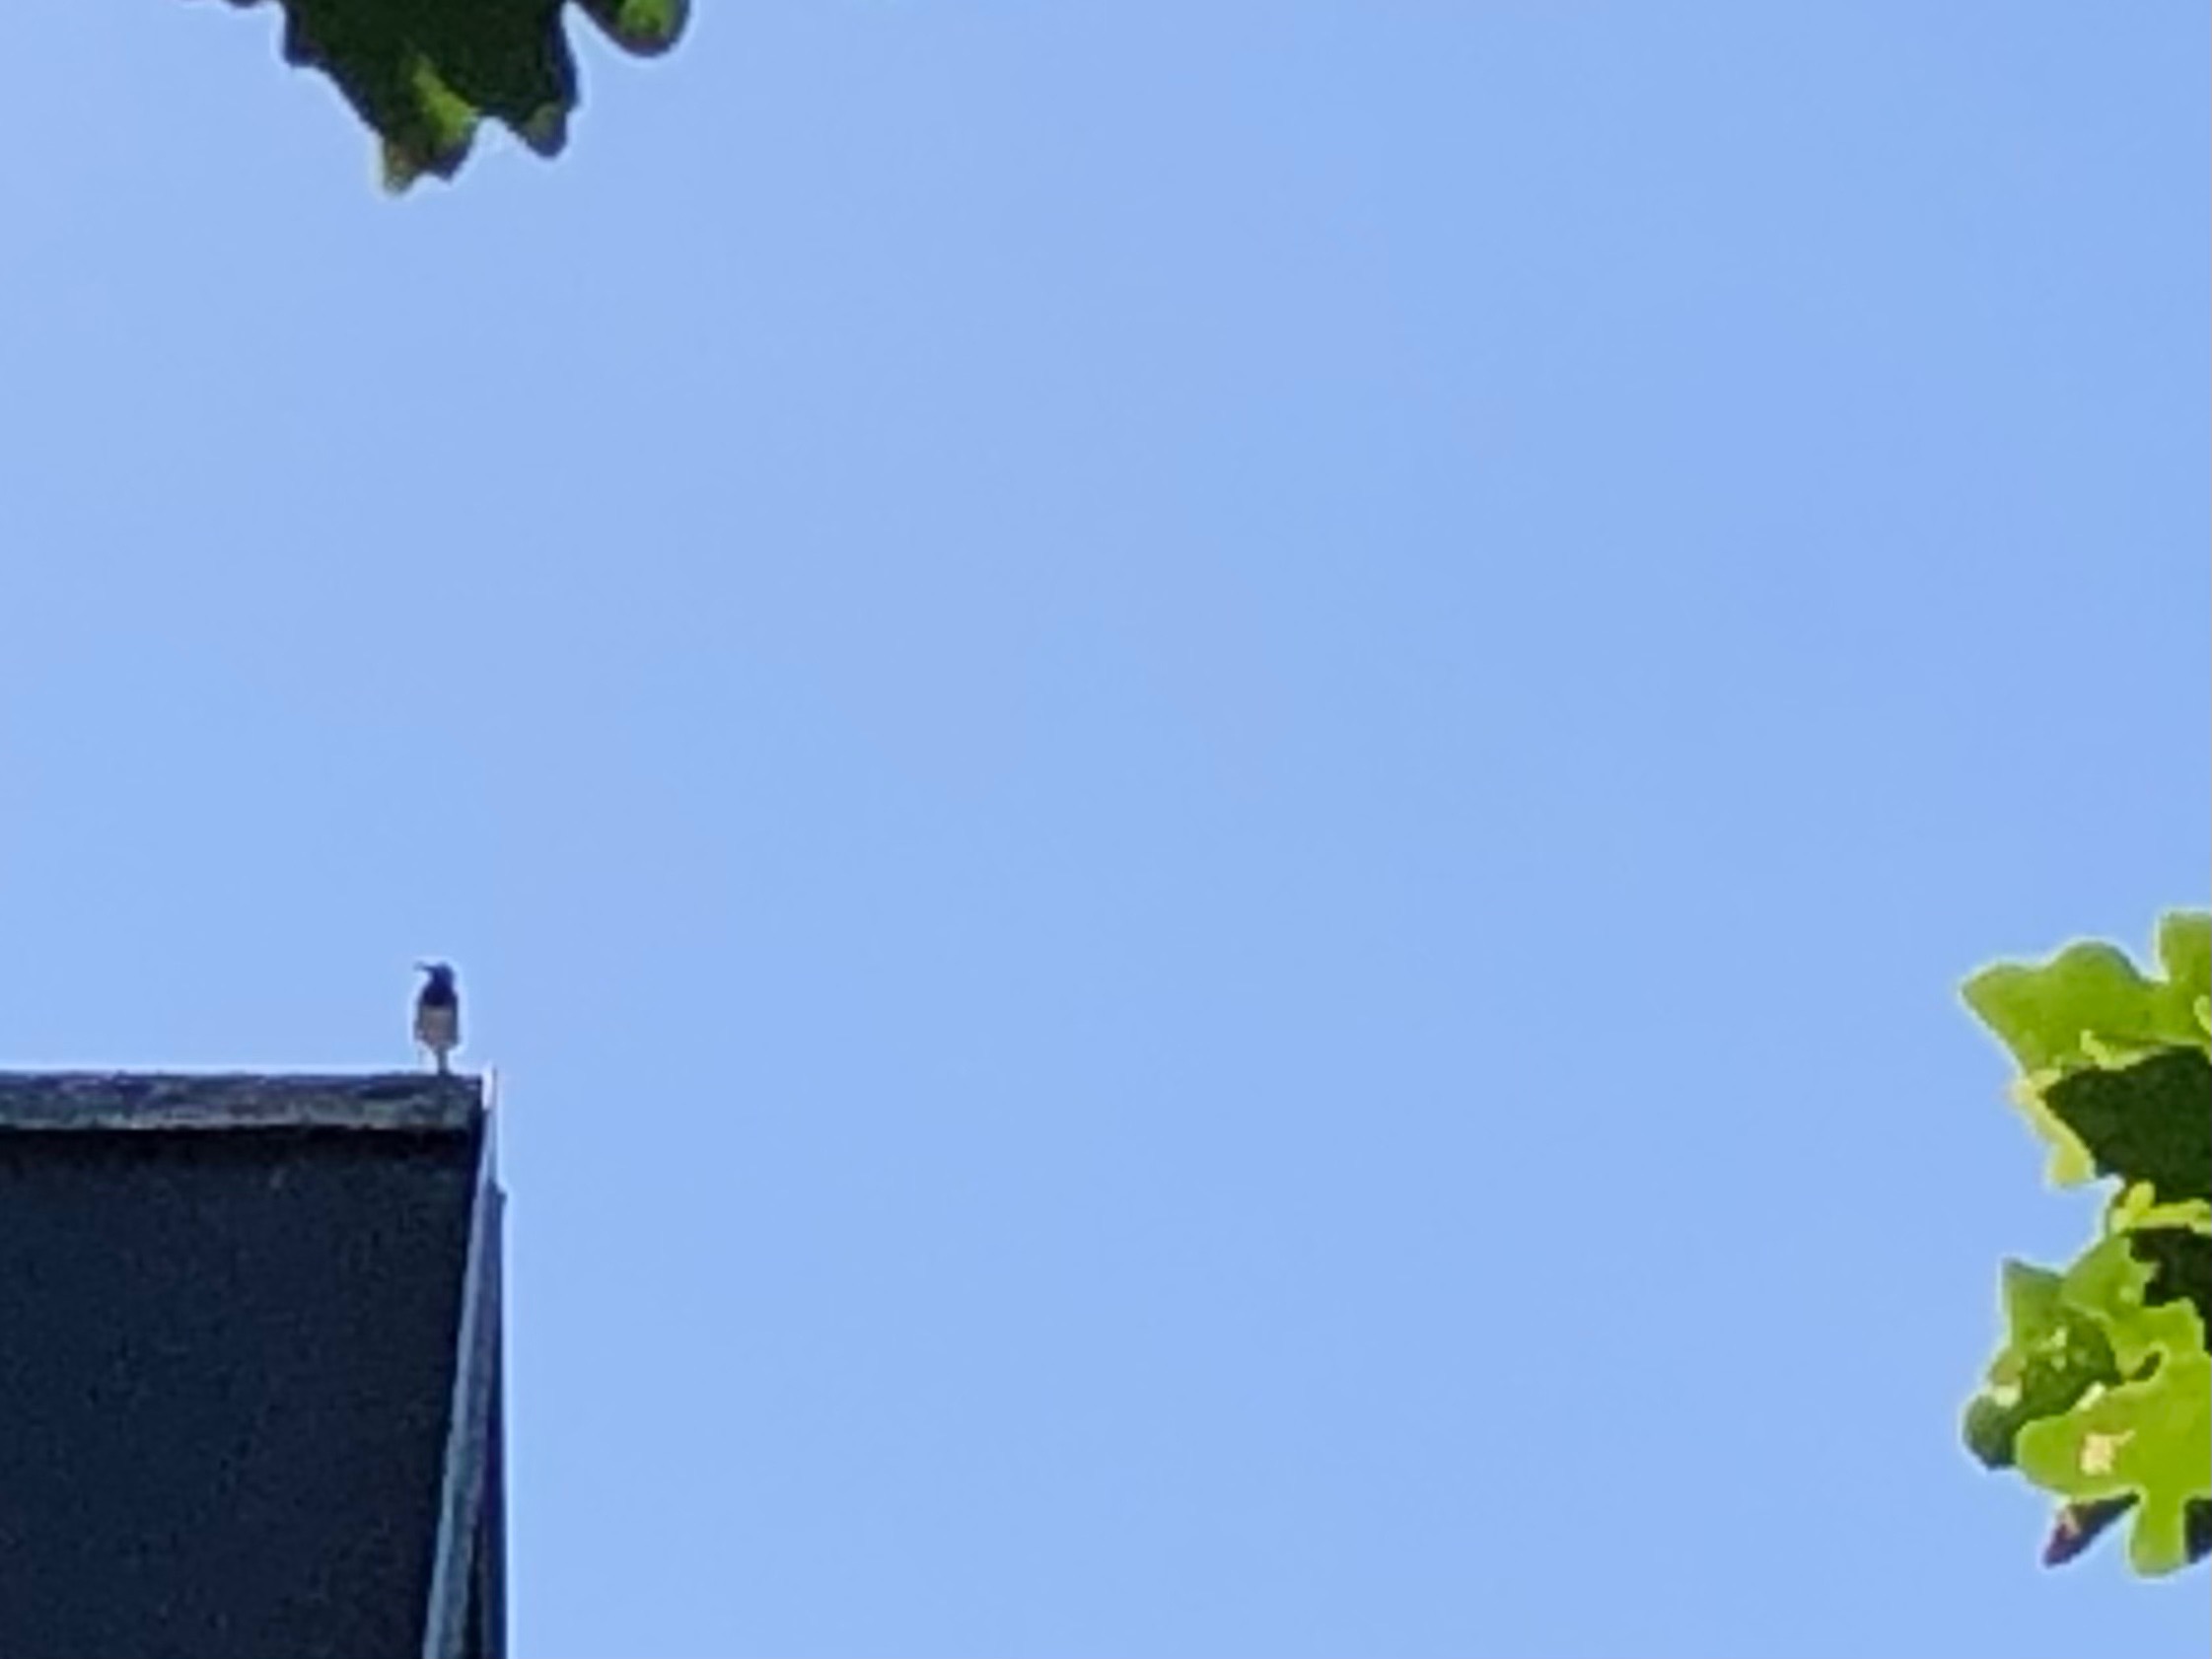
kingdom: Animalia
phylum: Chordata
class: Aves
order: Passeriformes
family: Motacillidae
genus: Motacilla
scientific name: Motacilla alba
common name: Hvid vipstjert
